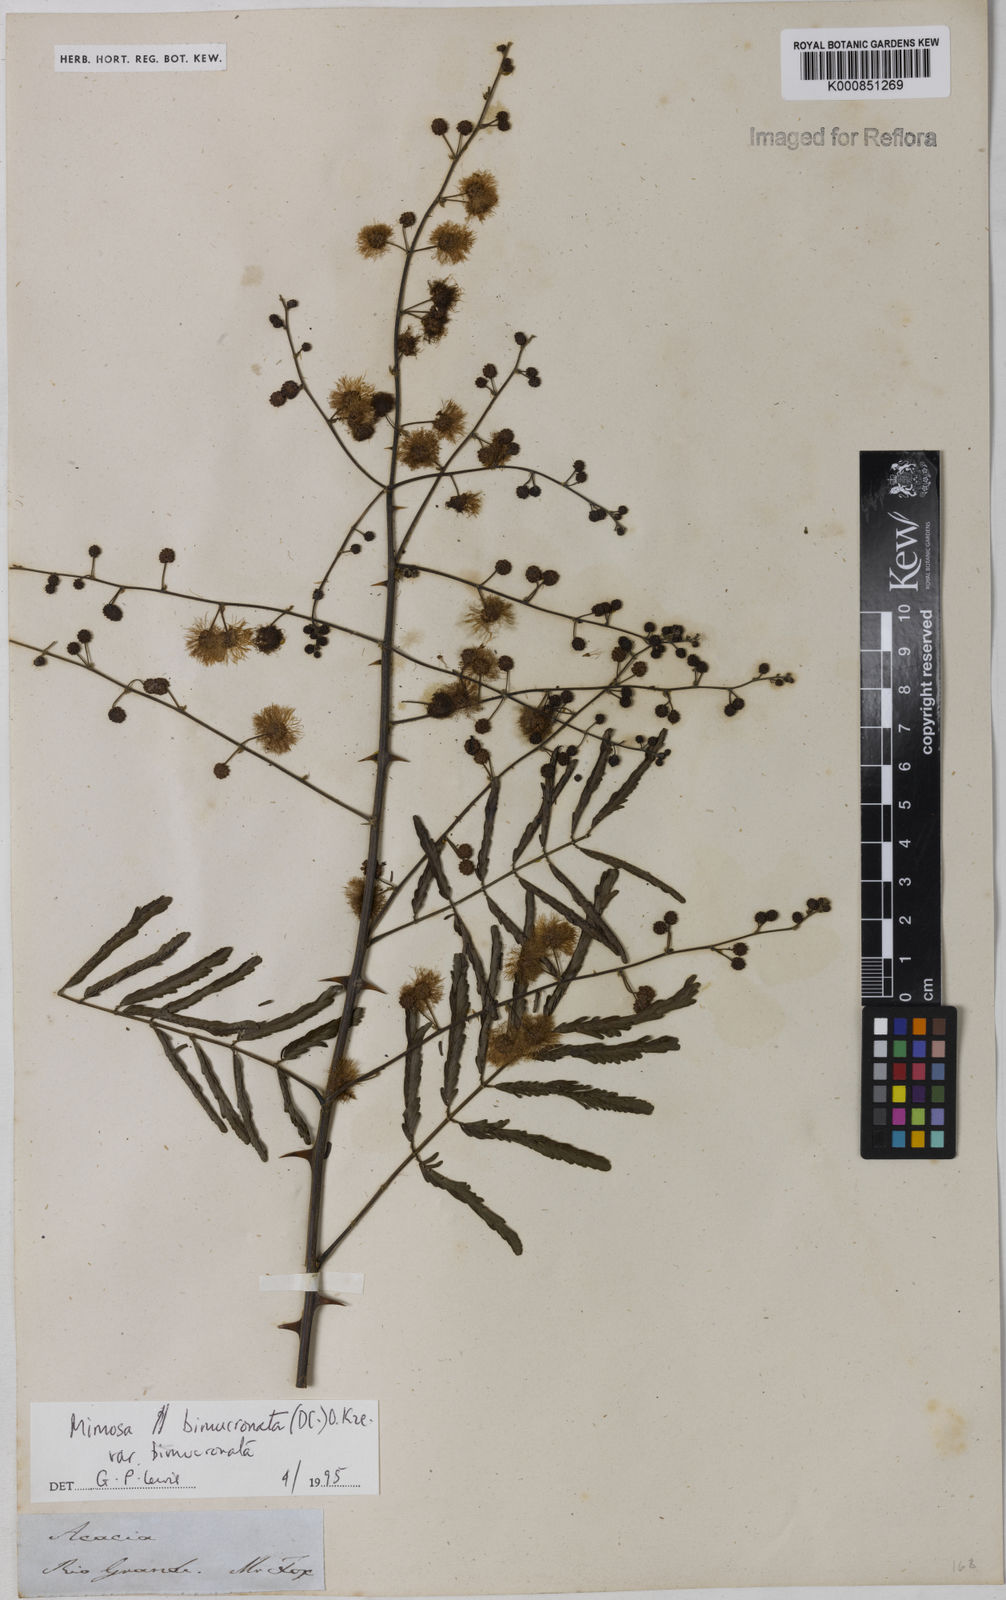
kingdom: Plantae
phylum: Tracheophyta
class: Magnoliopsida
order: Fabales
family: Fabaceae
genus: Mimosa
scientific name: Mimosa bimucronata
